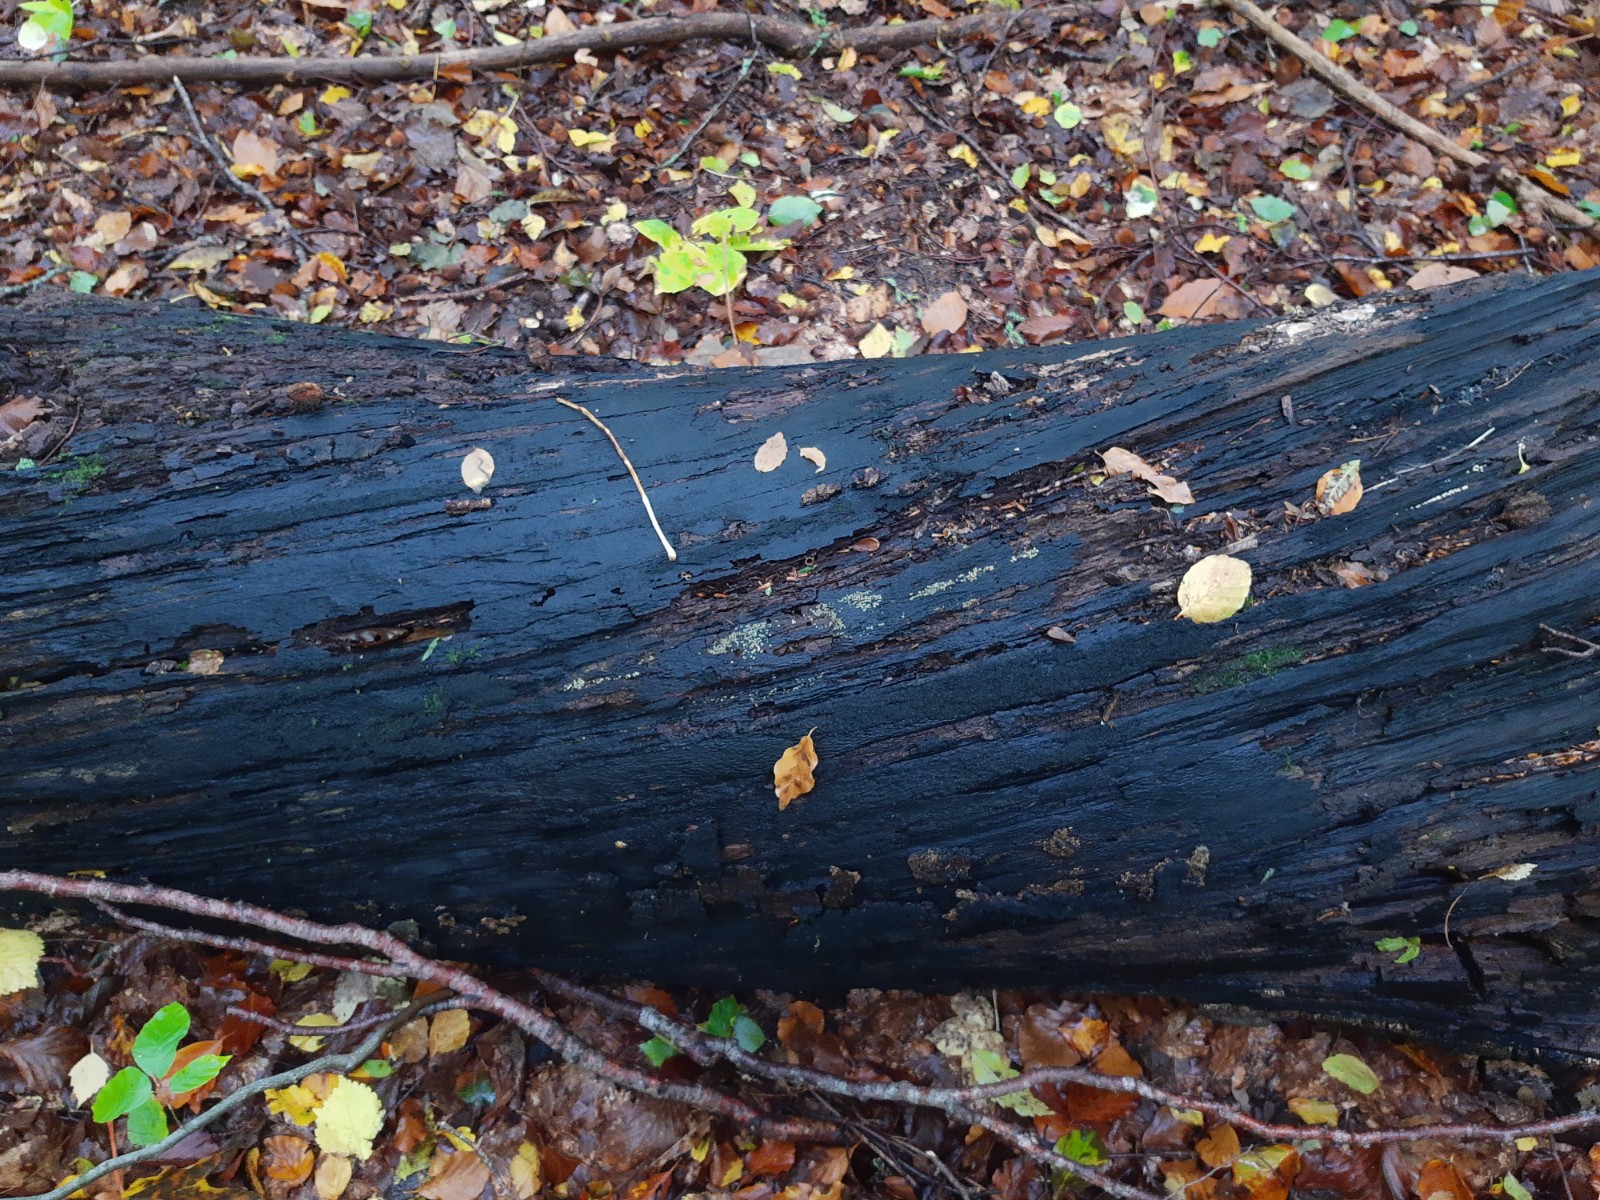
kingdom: Fungi
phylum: Ascomycota
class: Sordariomycetes
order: Hypocreales
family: Hypocreaceae
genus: Trichoderma
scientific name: Trichoderma strictipile
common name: grønprikket kødkerne
